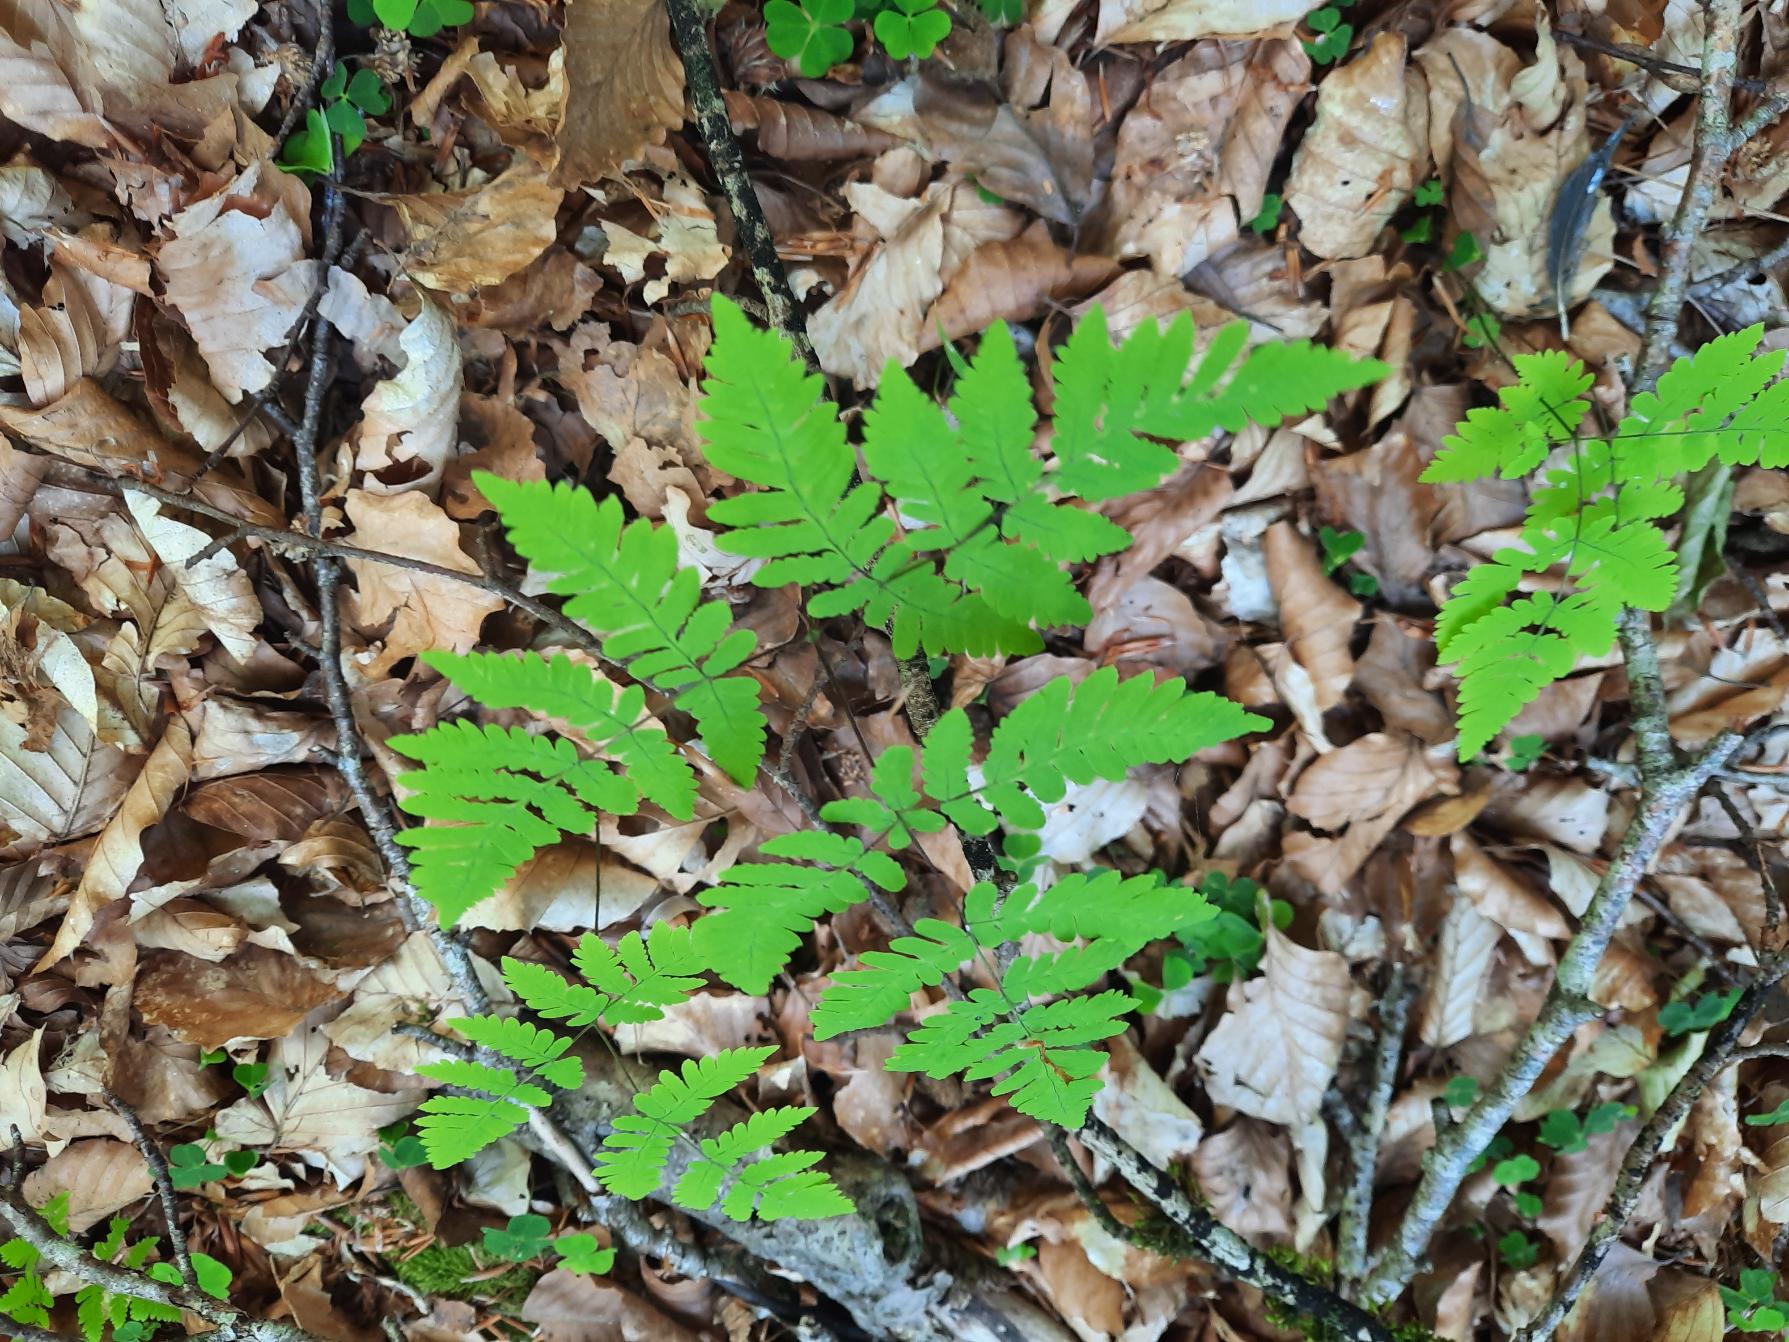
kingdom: Plantae
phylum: Tracheophyta
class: Polypodiopsida
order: Polypodiales
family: Cystopteridaceae
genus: Gymnocarpium
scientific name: Gymnocarpium dryopteris
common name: Tredelt egebregne
